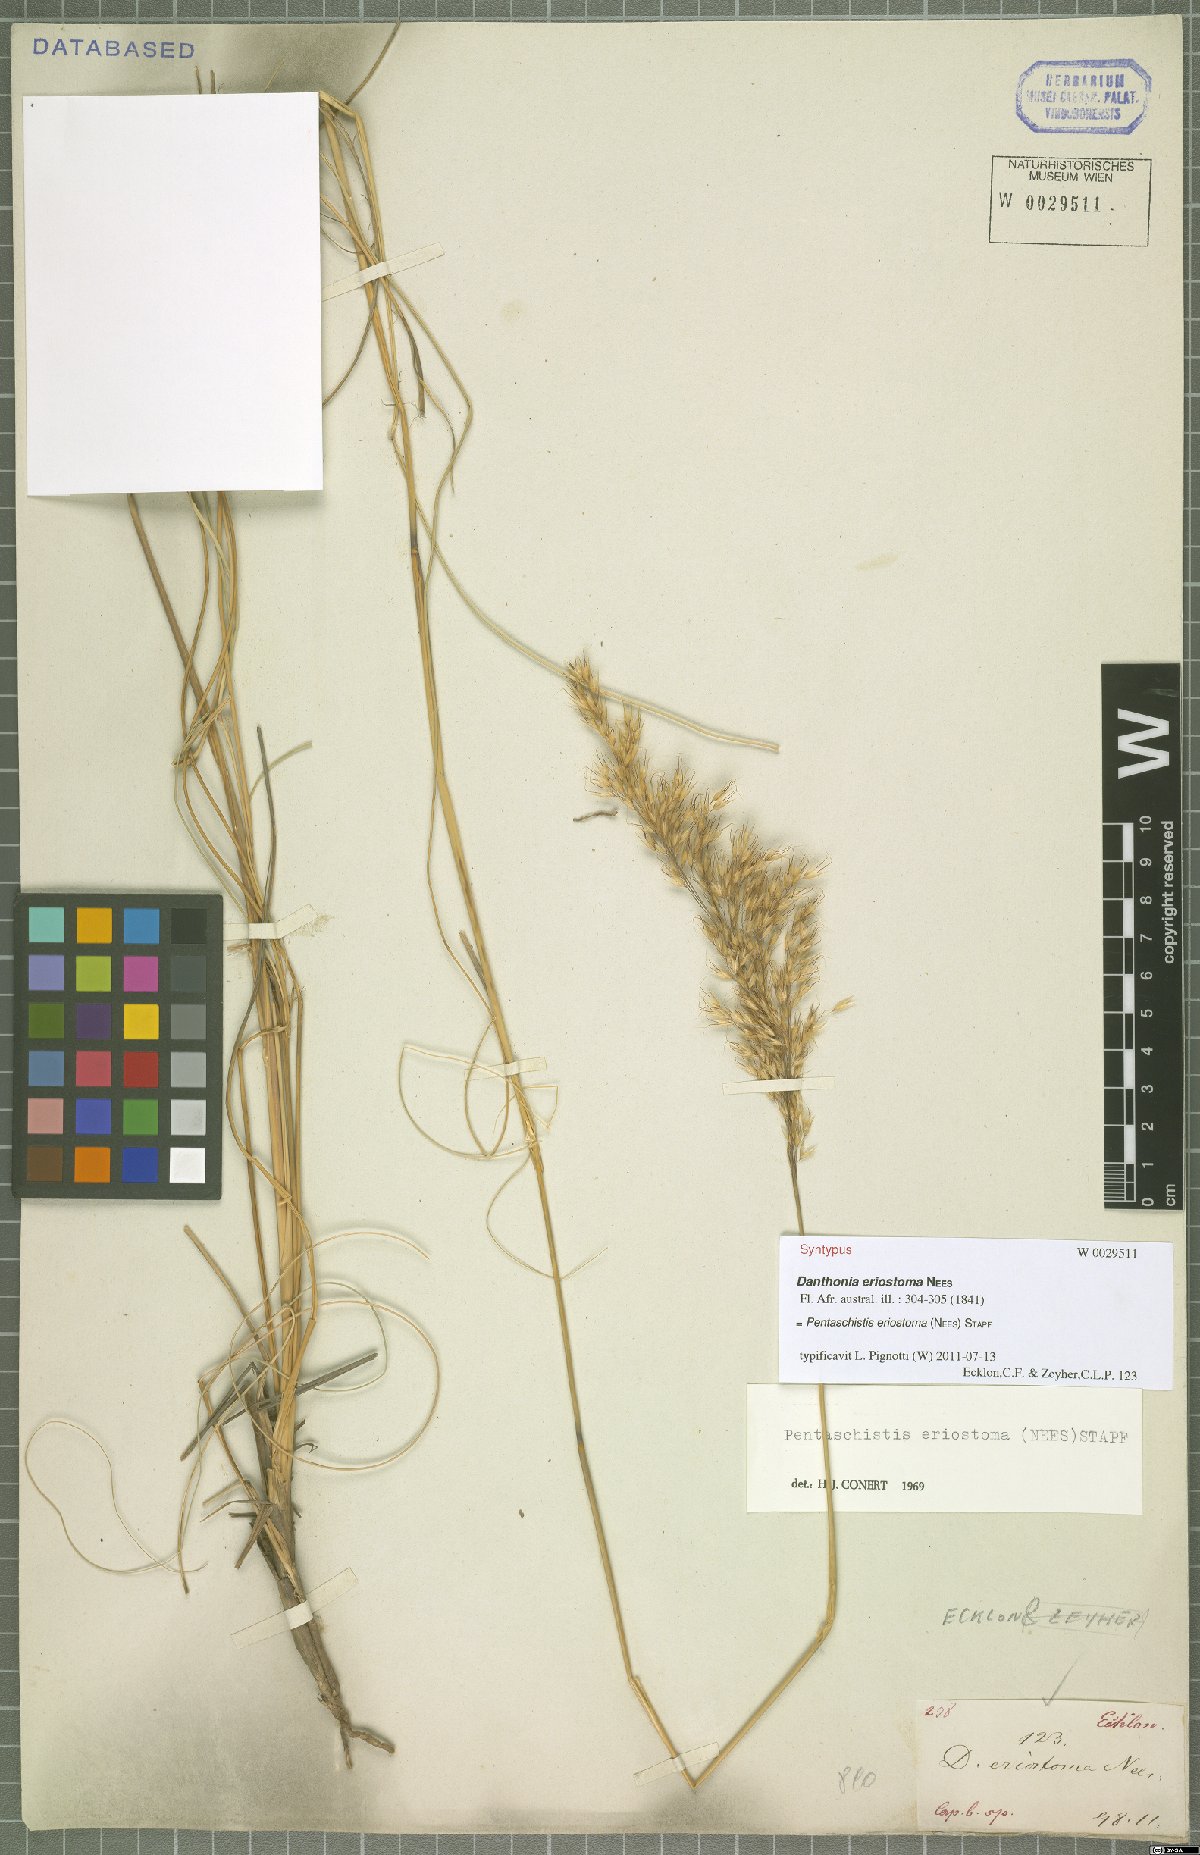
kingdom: Plantae
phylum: Tracheophyta
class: Liliopsida
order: Poales
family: Poaceae
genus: Pentameris
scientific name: Pentameris eriostoma
